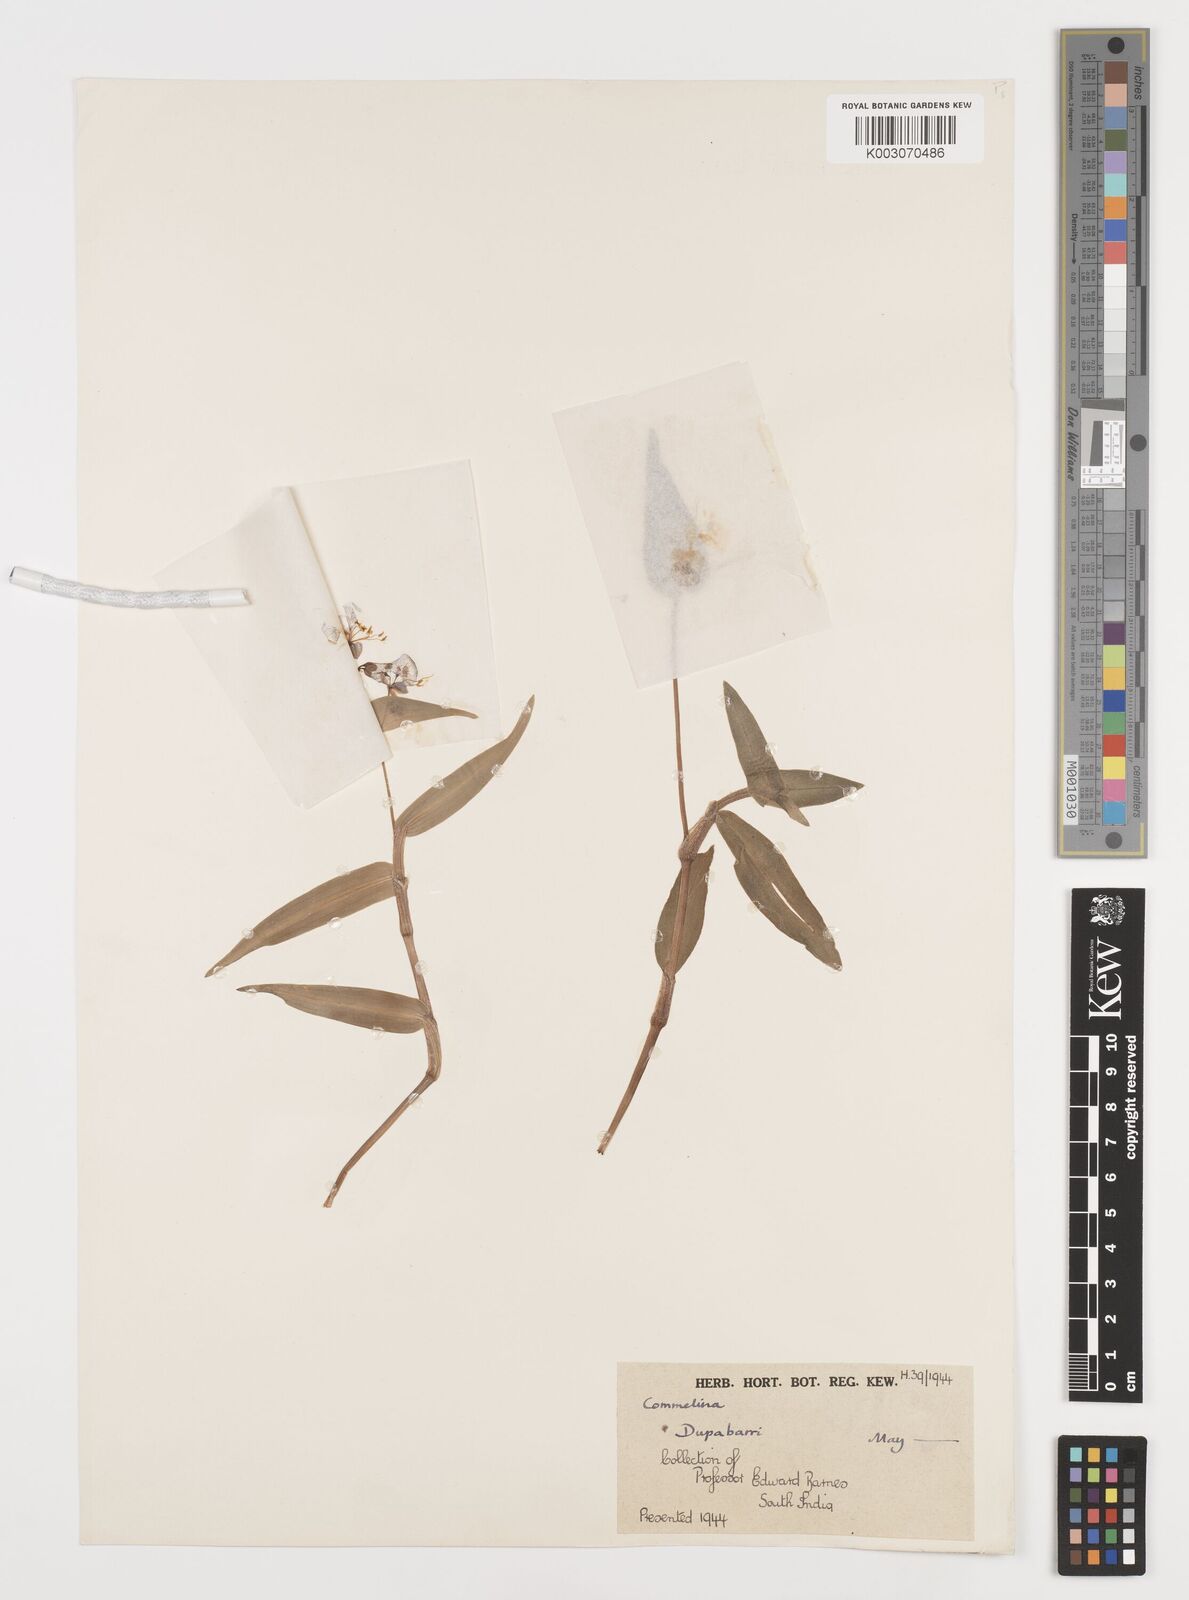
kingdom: Plantae
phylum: Tracheophyta
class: Liliopsida
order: Commelinales
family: Commelinaceae
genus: Commelina
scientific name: Commelina
